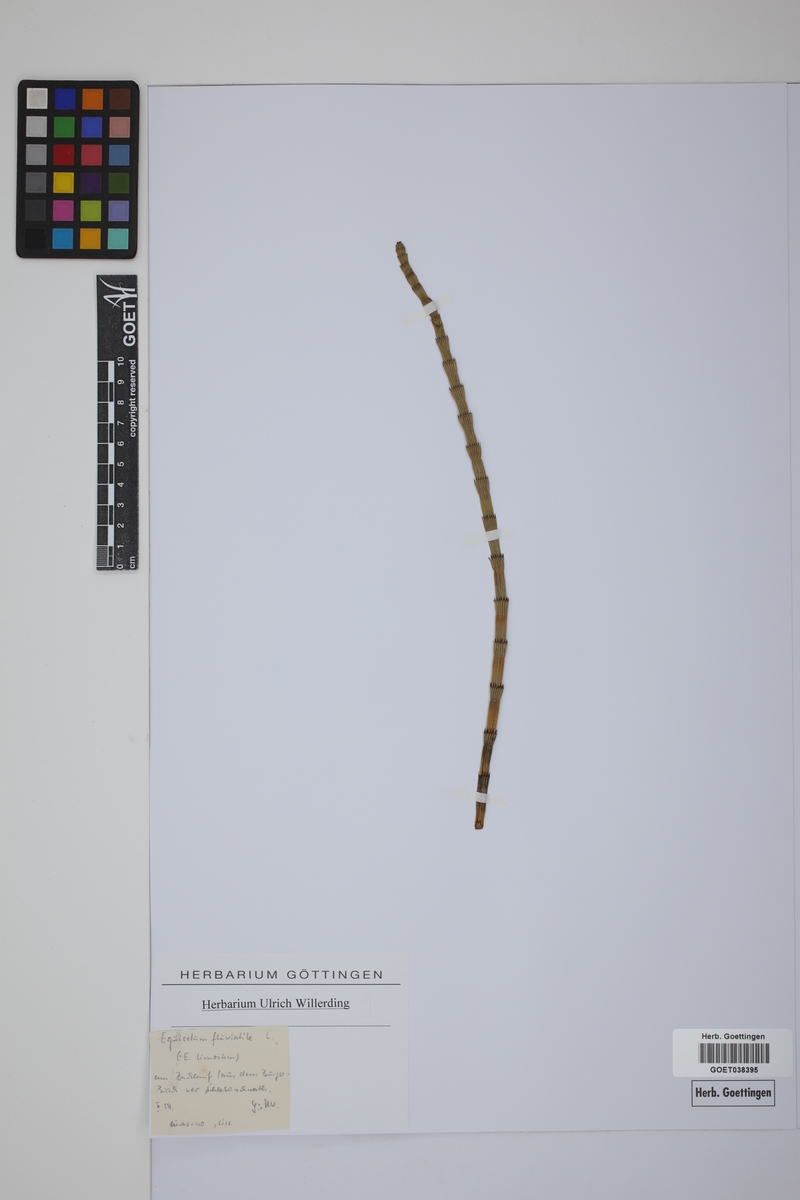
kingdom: Plantae
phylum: Tracheophyta
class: Polypodiopsida
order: Equisetales
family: Equisetaceae
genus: Equisetum
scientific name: Equisetum fluviatile
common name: Water horsetail
